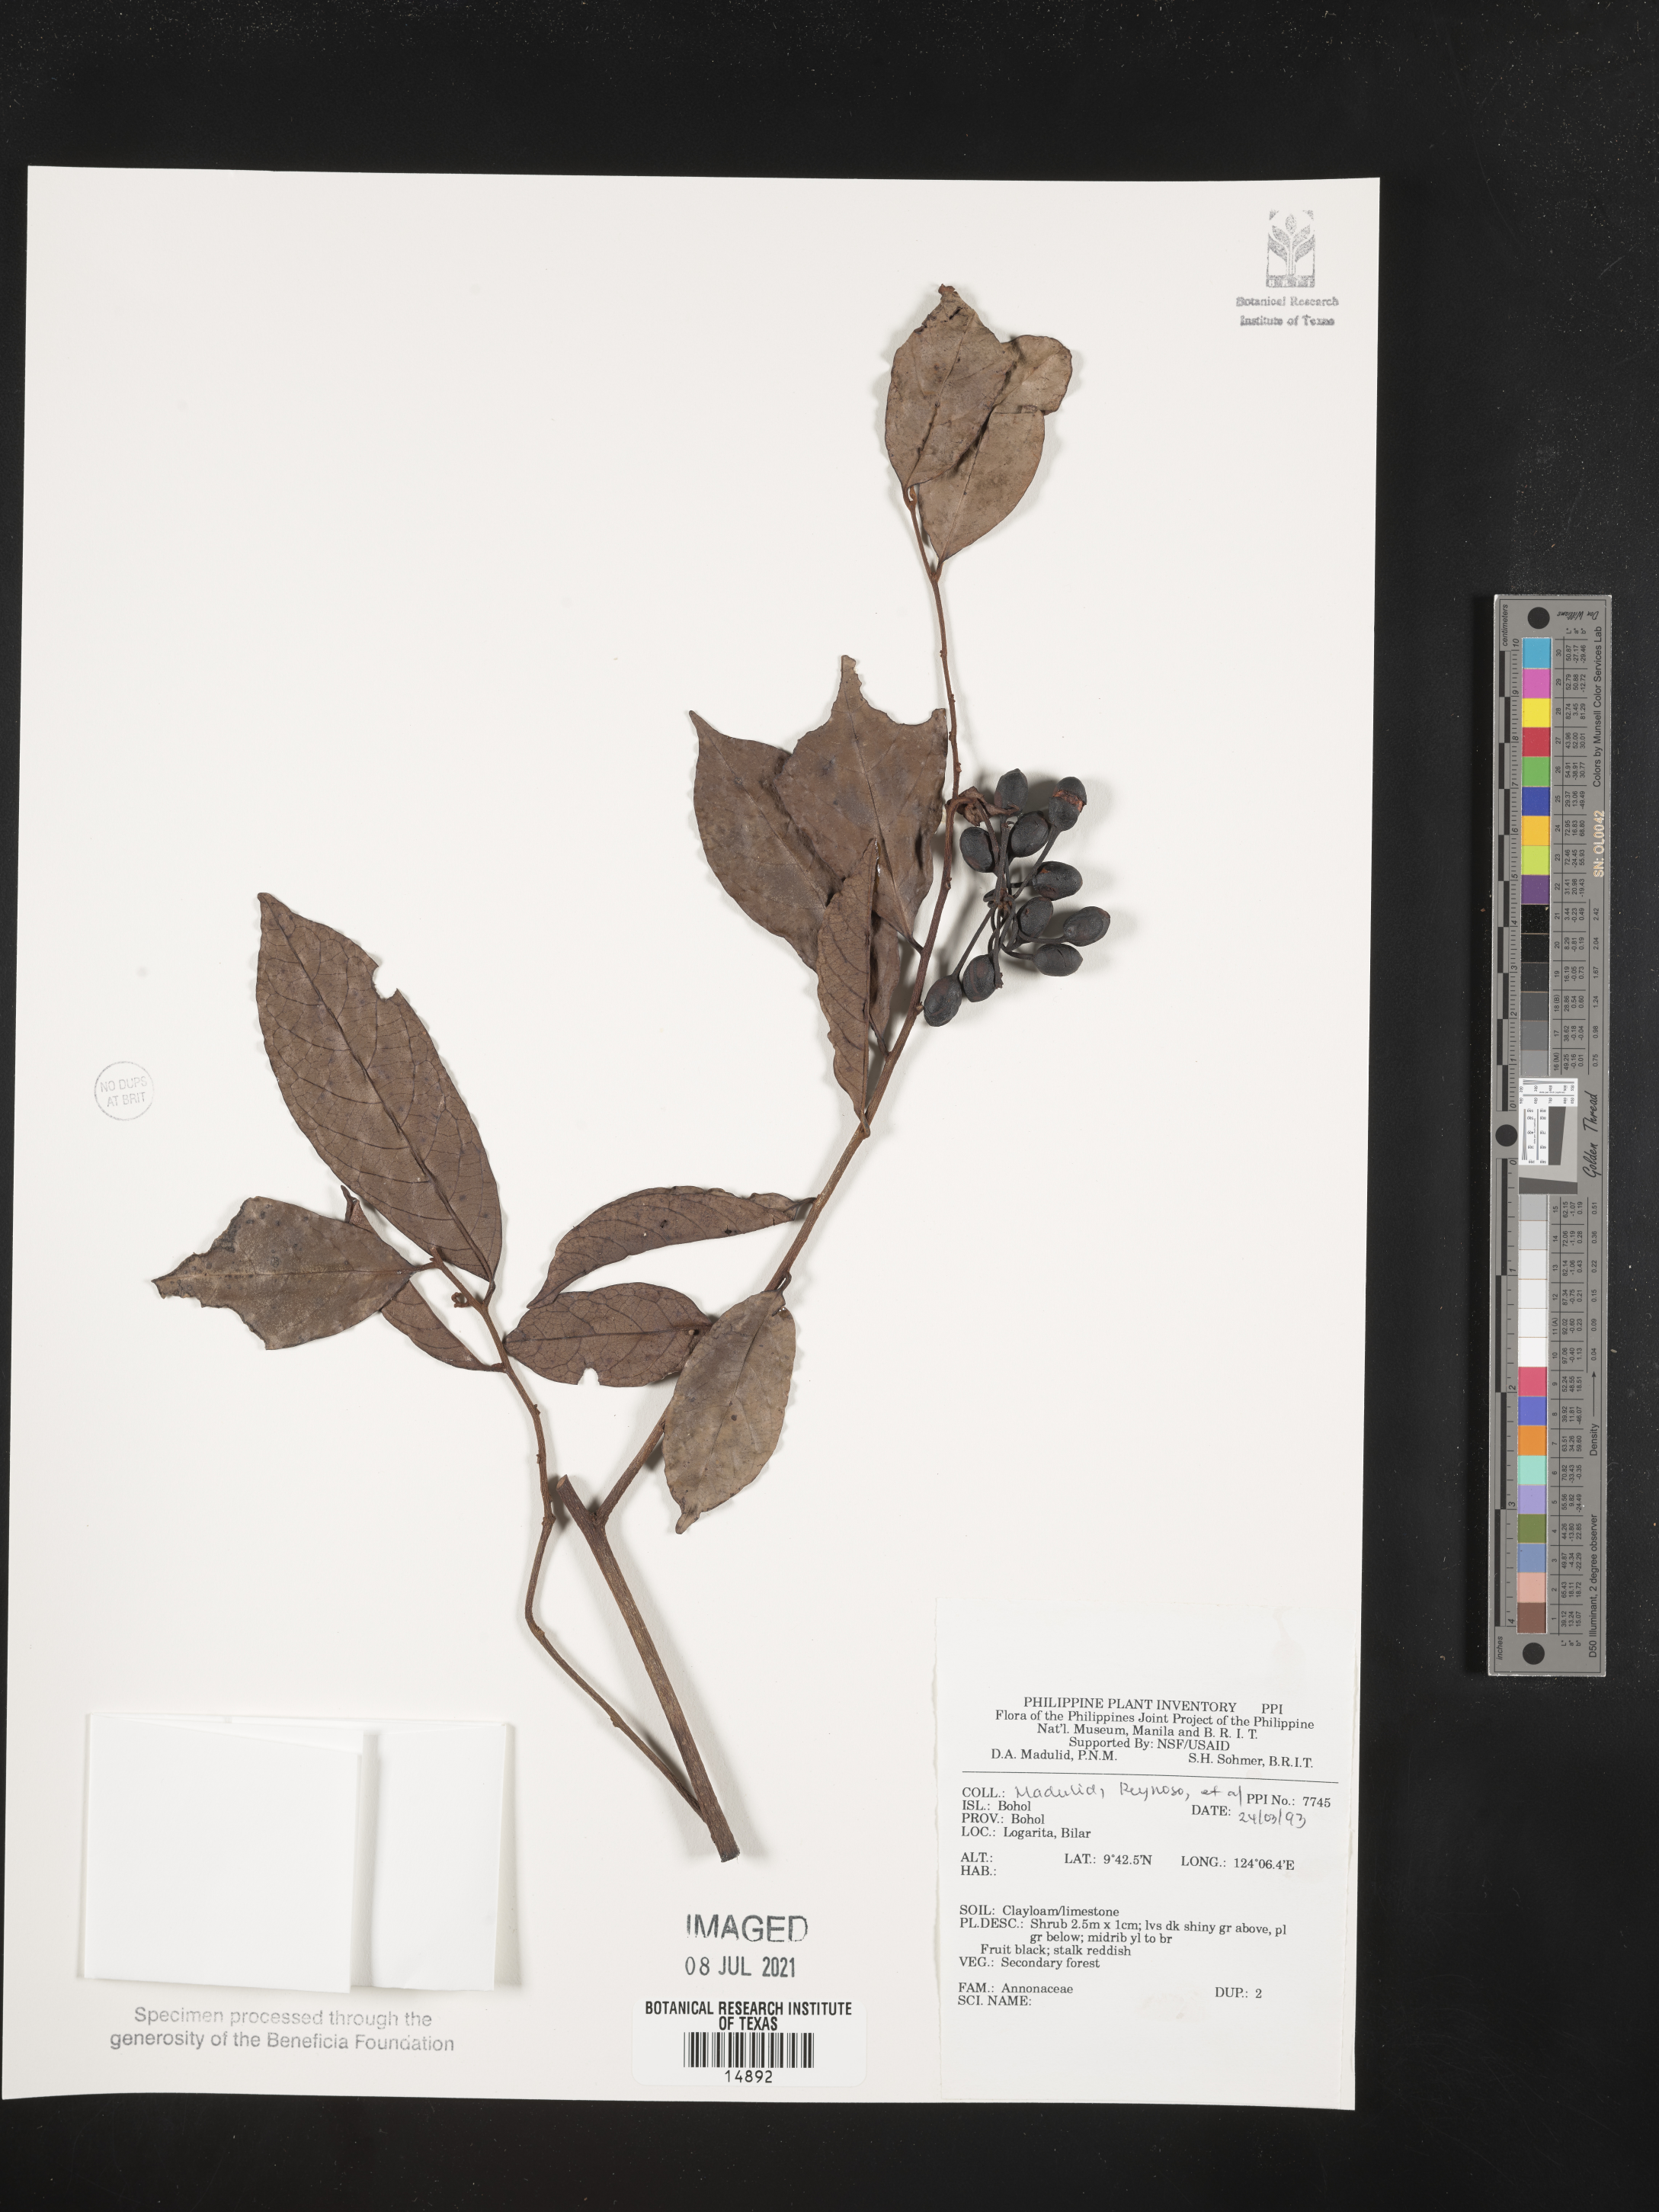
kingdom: Plantae
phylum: Tracheophyta
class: Magnoliopsida
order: Magnoliales
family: Annonaceae
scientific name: Annonaceae
